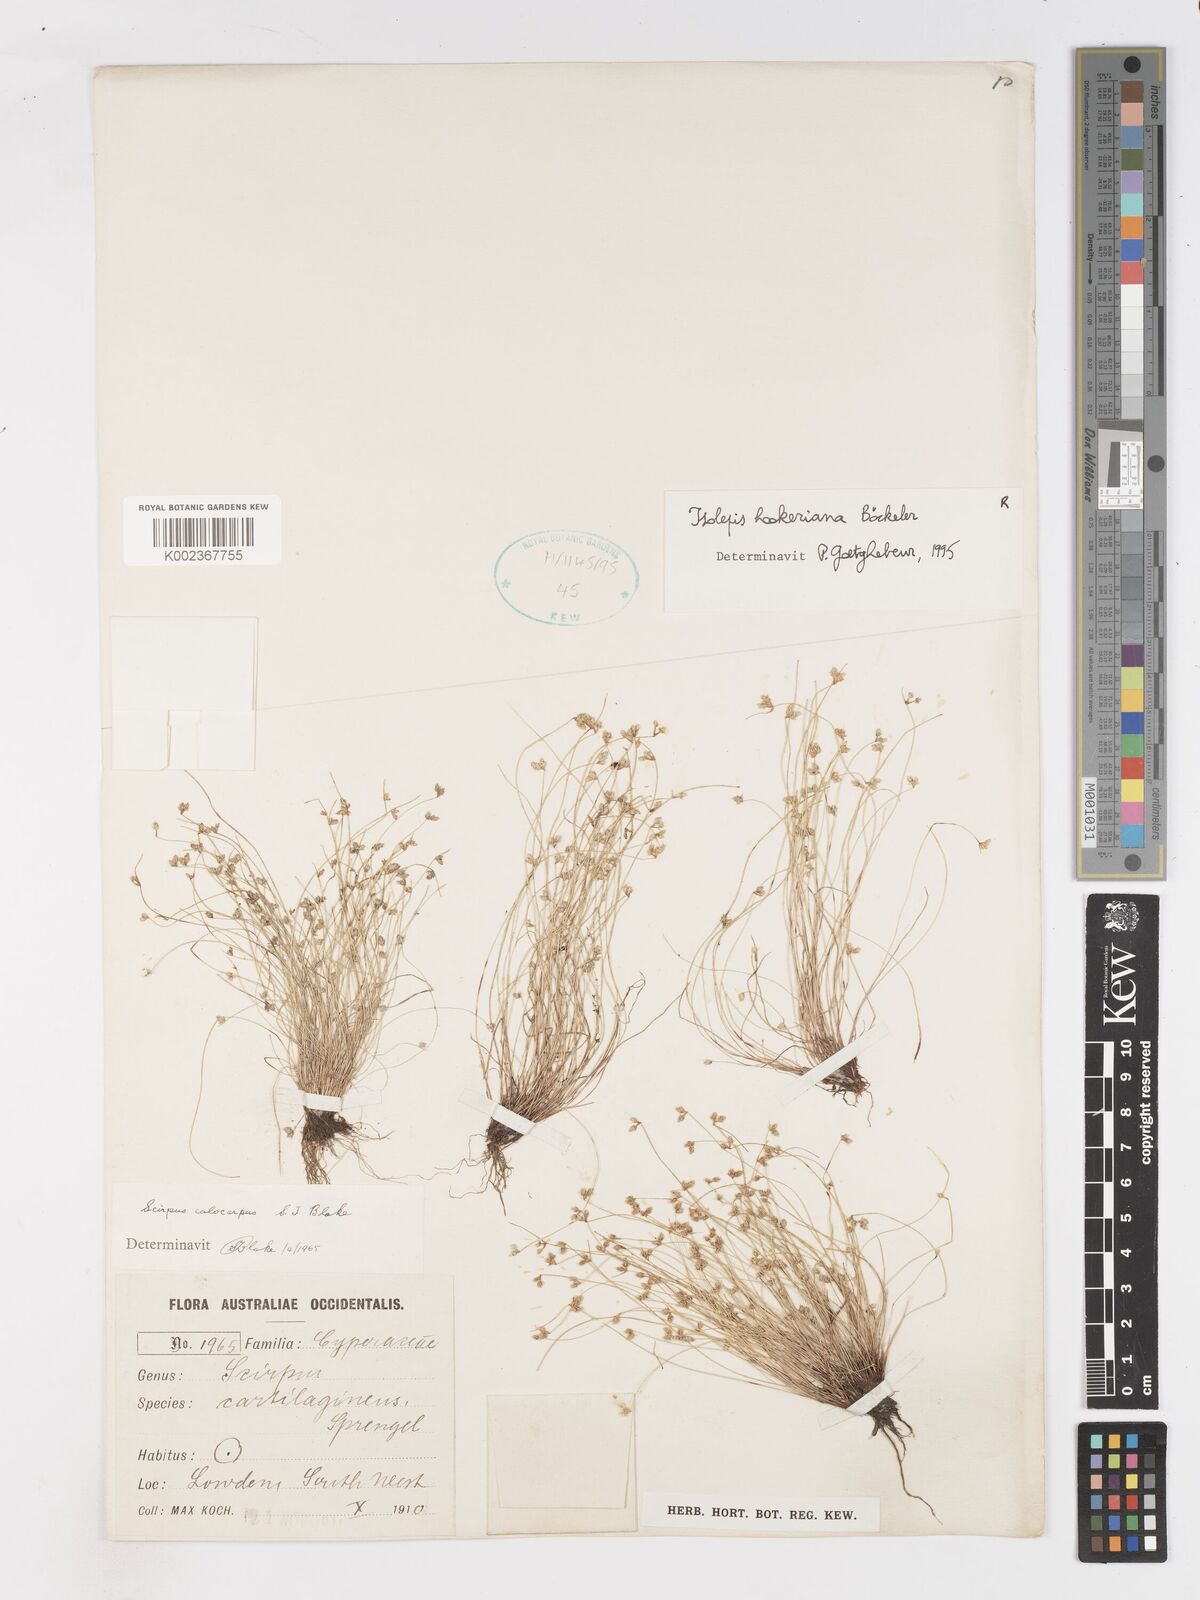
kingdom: Plantae
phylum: Tracheophyta
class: Liliopsida
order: Poales
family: Cyperaceae
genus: Isolepis
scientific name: Isolepis multicaulis
